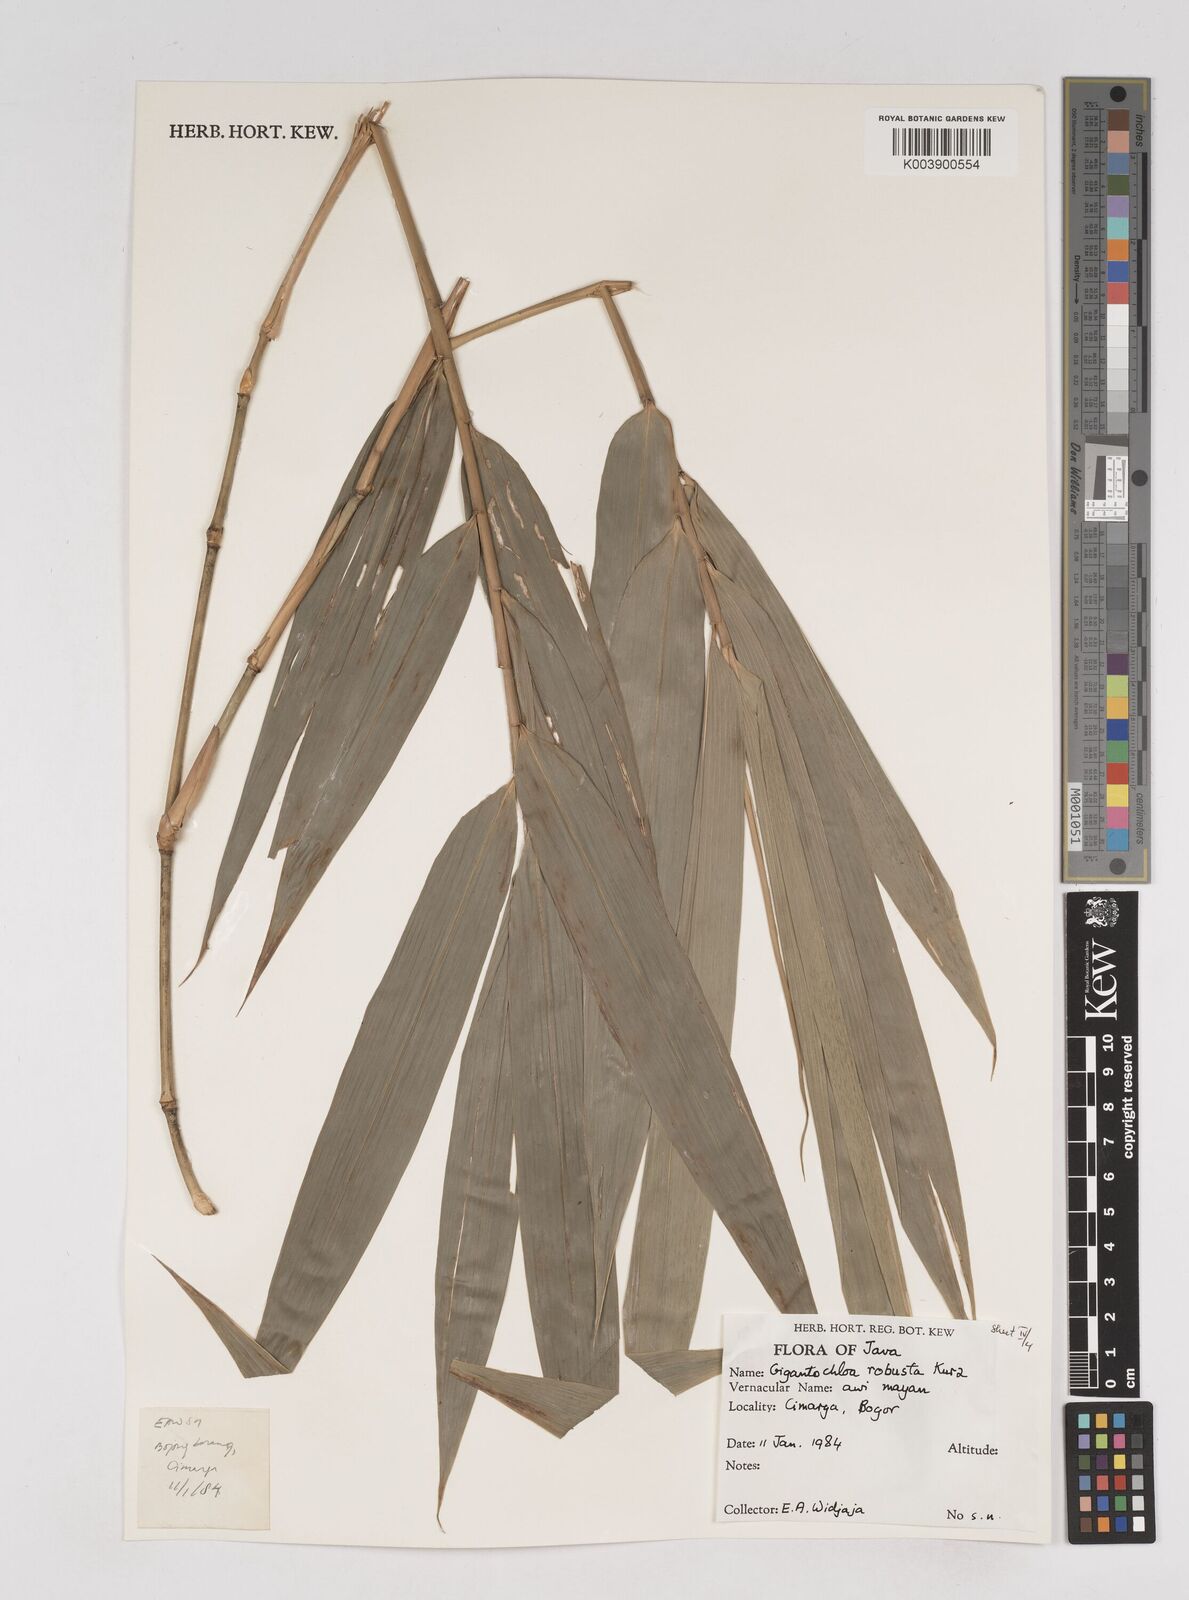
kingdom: Plantae
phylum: Tracheophyta
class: Liliopsida
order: Poales
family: Poaceae
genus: Gigantochloa
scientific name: Gigantochloa robusta
